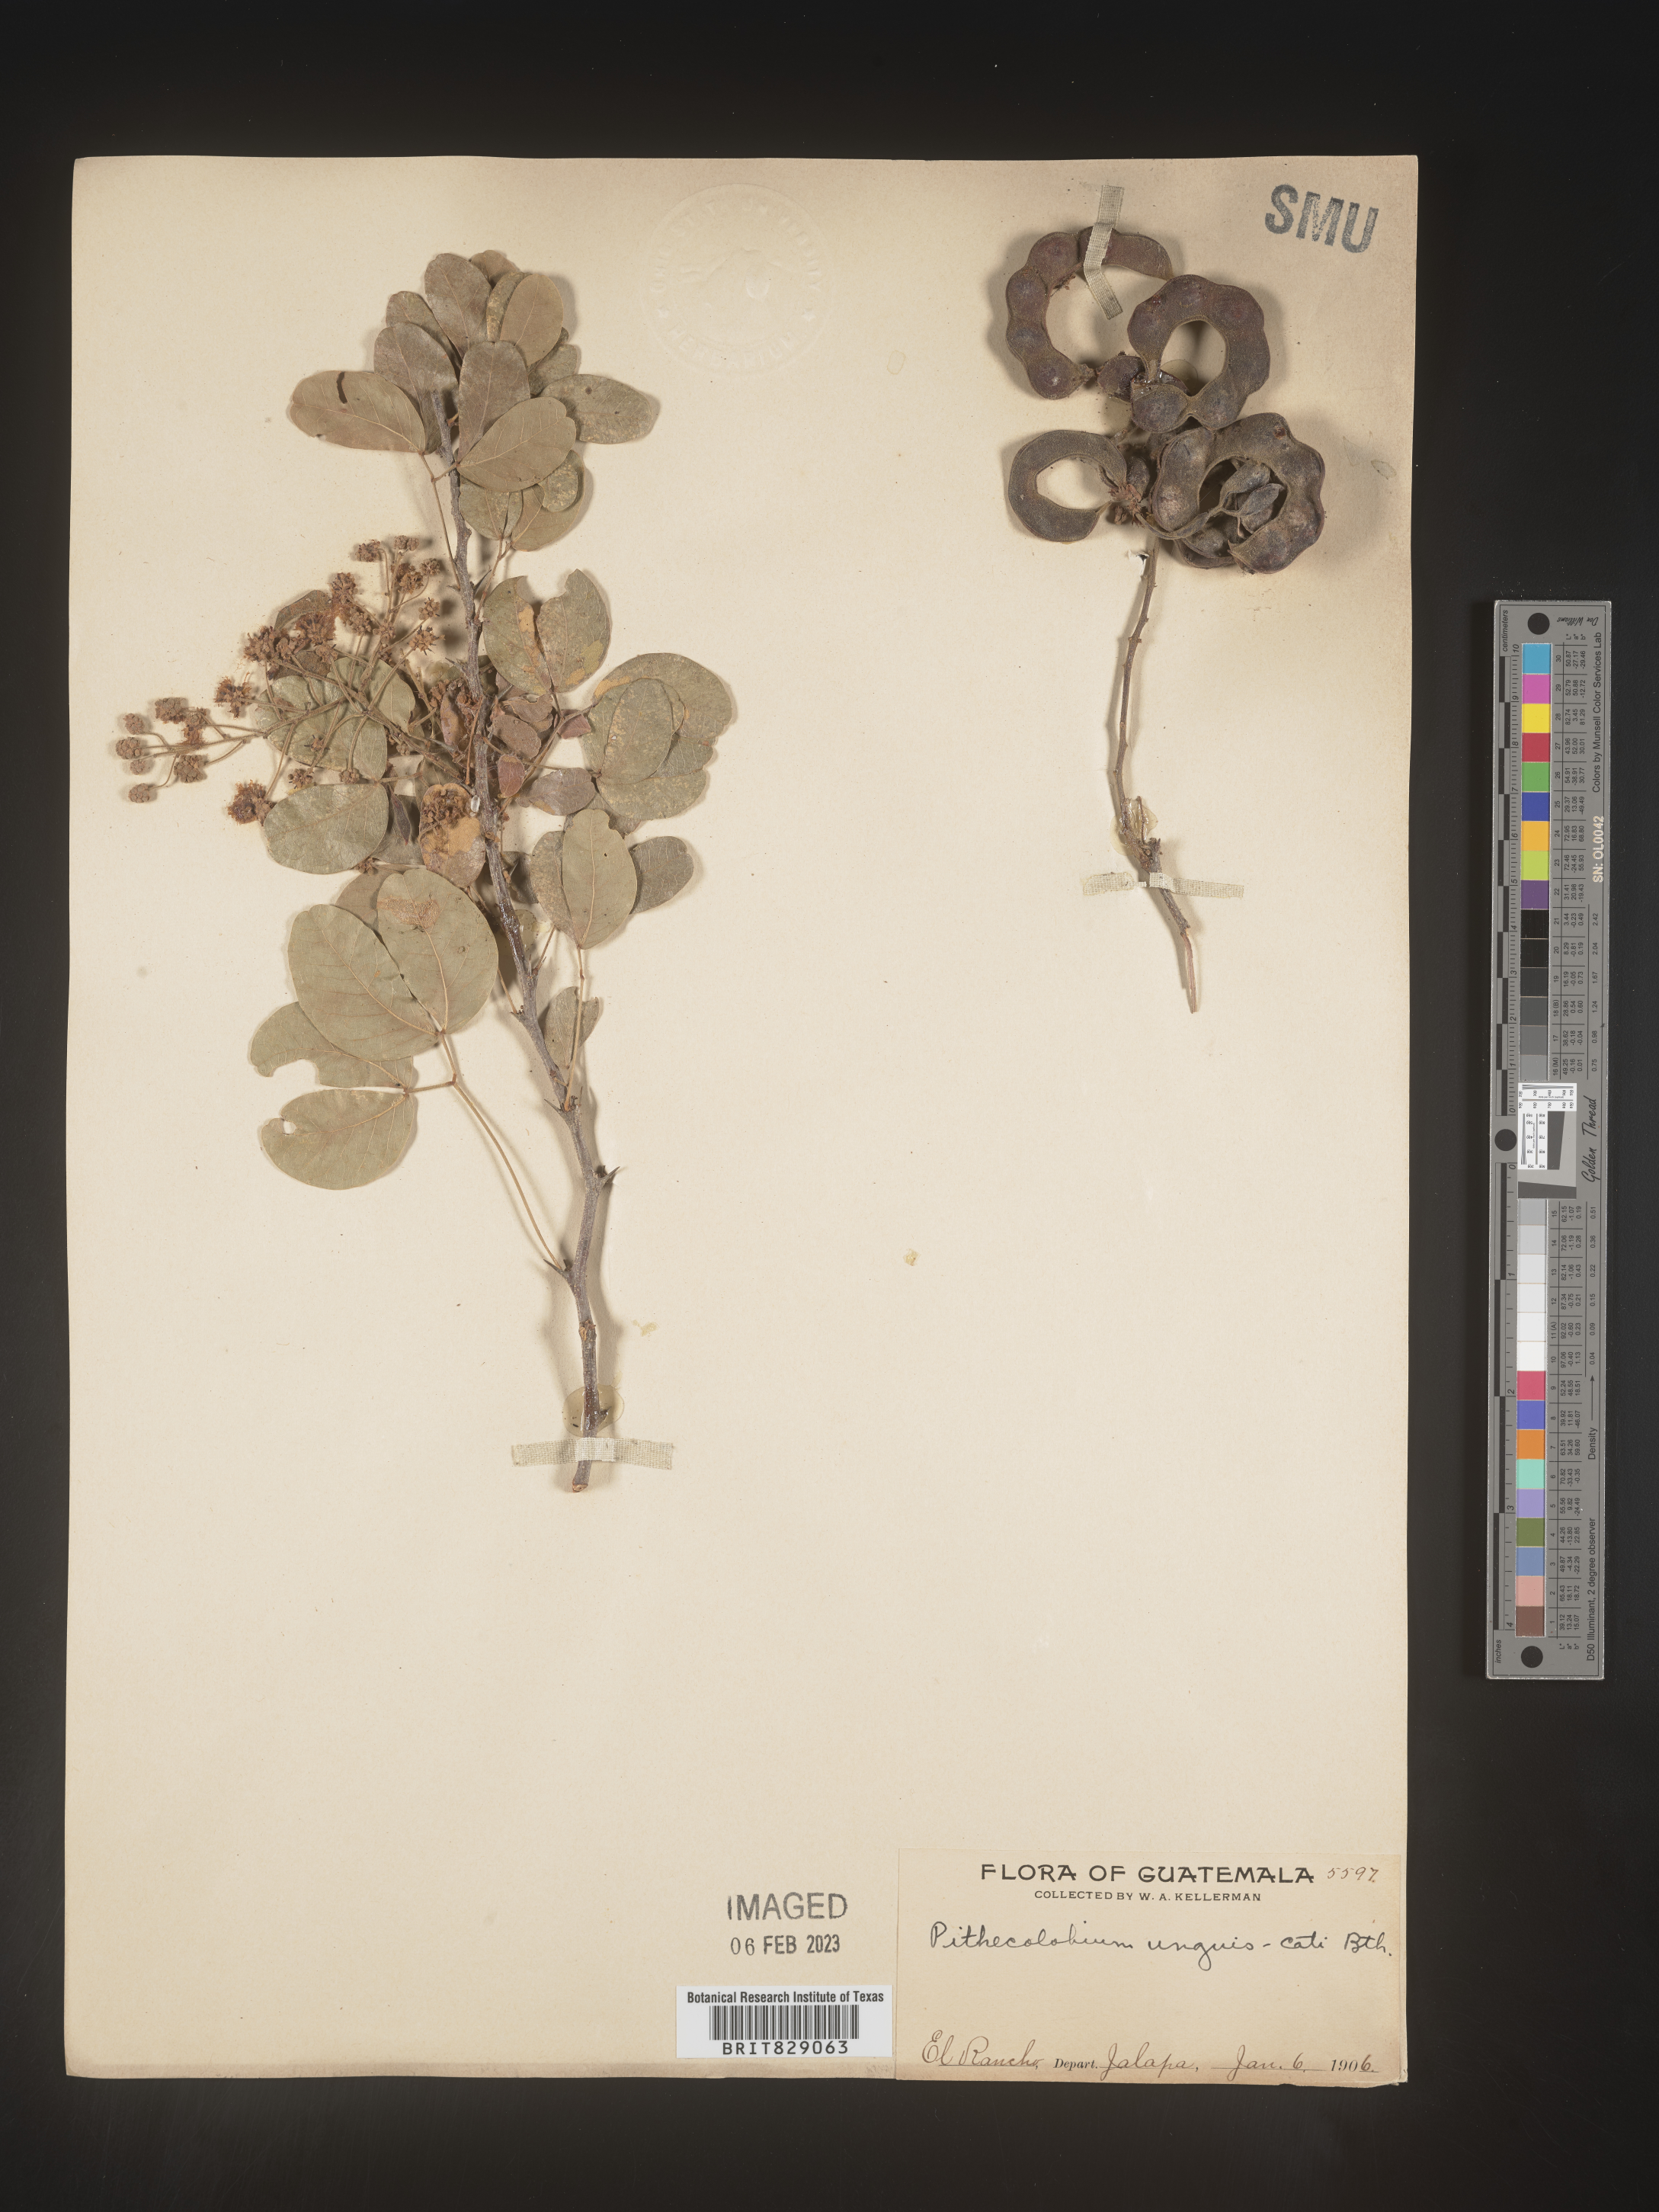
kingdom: Plantae
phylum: Tracheophyta
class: Magnoliopsida
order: Fabales
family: Fabaceae
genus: Pithecellobium
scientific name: Pithecellobium
